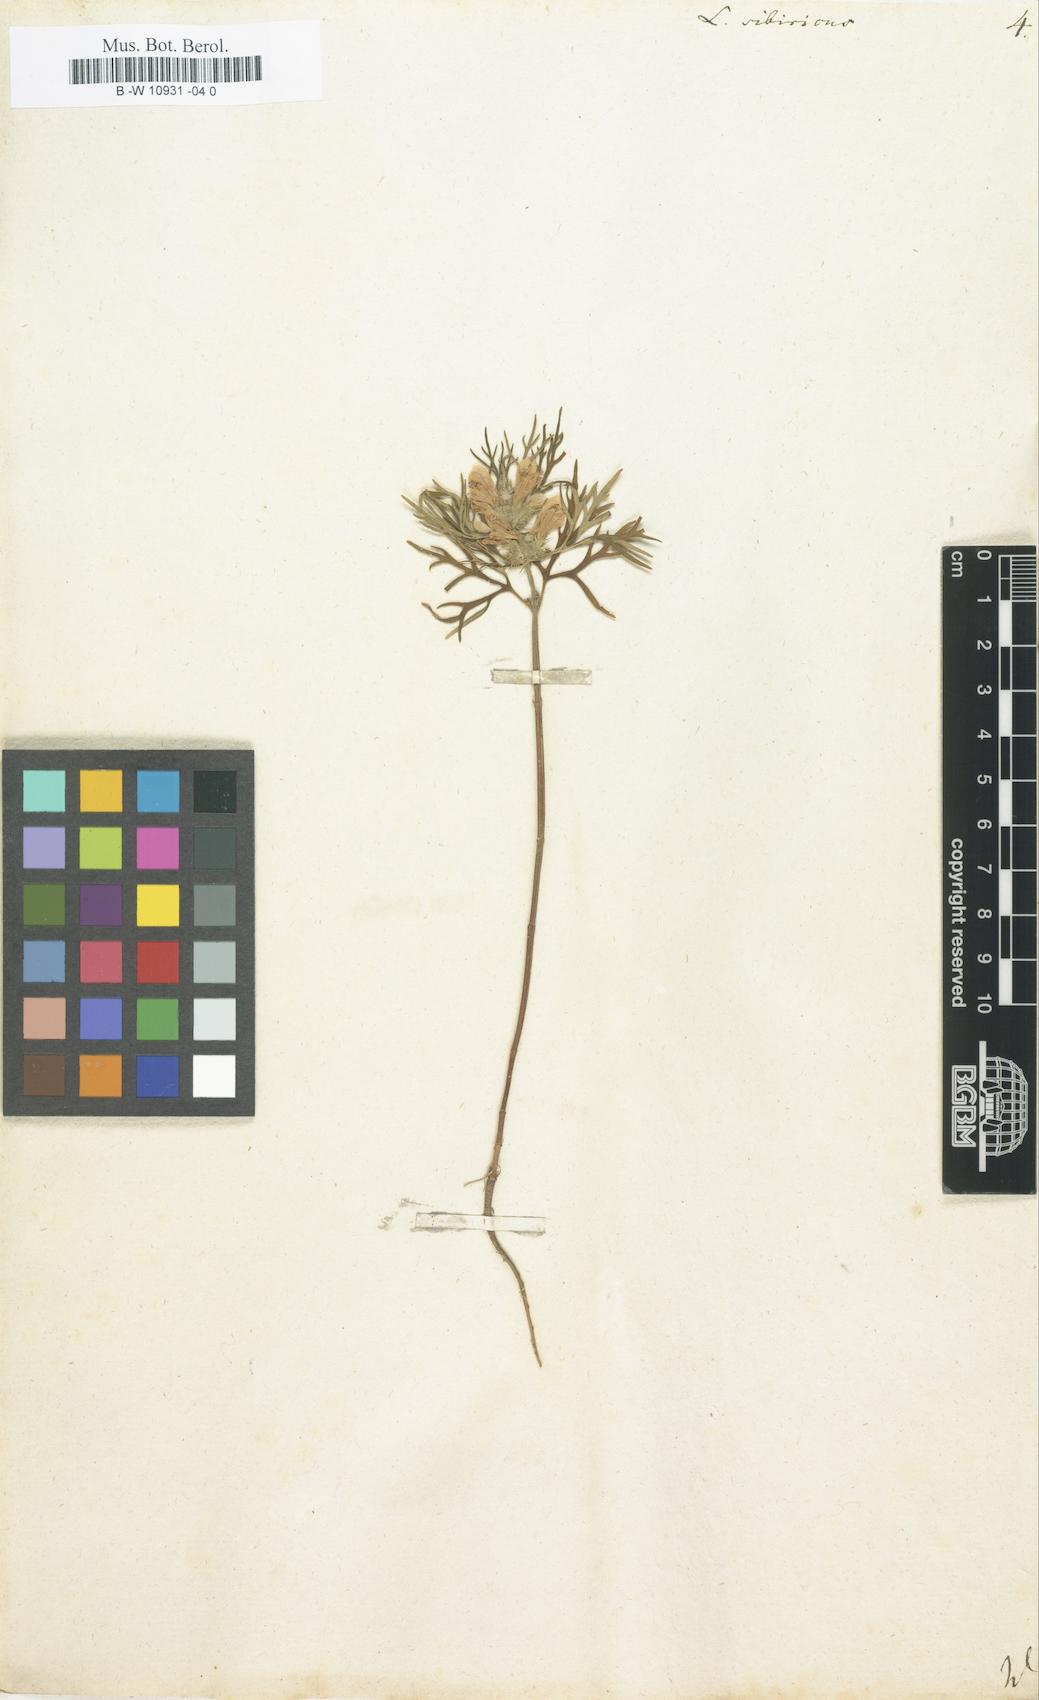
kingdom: Plantae
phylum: Tracheophyta
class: Magnoliopsida
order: Lamiales
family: Lamiaceae
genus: Leonurus
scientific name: Leonurus sibiricus
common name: Honeyweed
